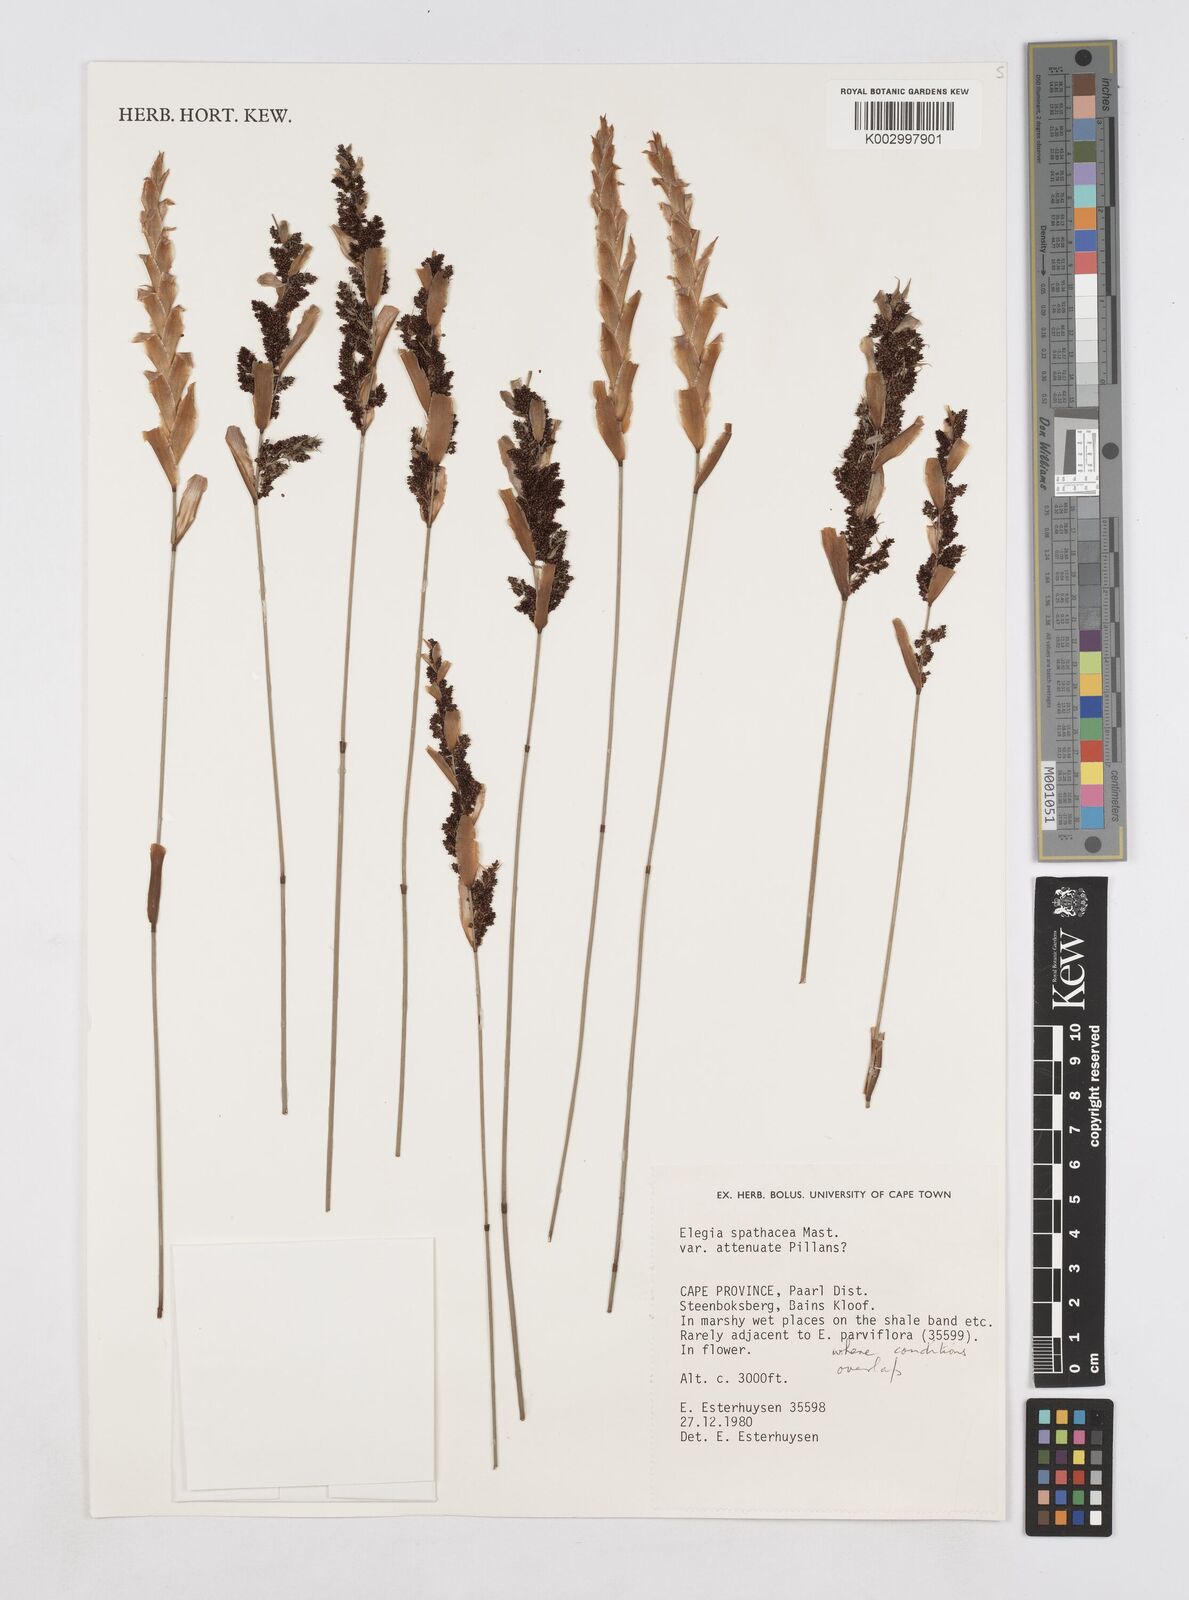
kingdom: Plantae
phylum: Tracheophyta
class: Liliopsida
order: Poales
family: Restionaceae
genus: Elegia
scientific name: Elegia rigida
